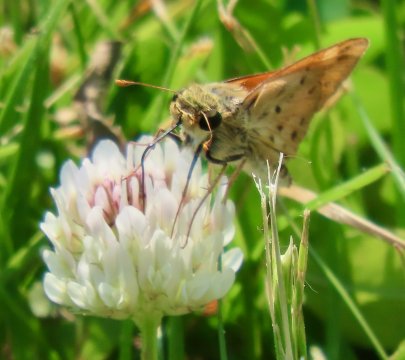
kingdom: Animalia
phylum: Arthropoda
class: Insecta
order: Lepidoptera
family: Hesperiidae
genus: Hylephila
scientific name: Hylephila phyleus
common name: Fiery Skipper
